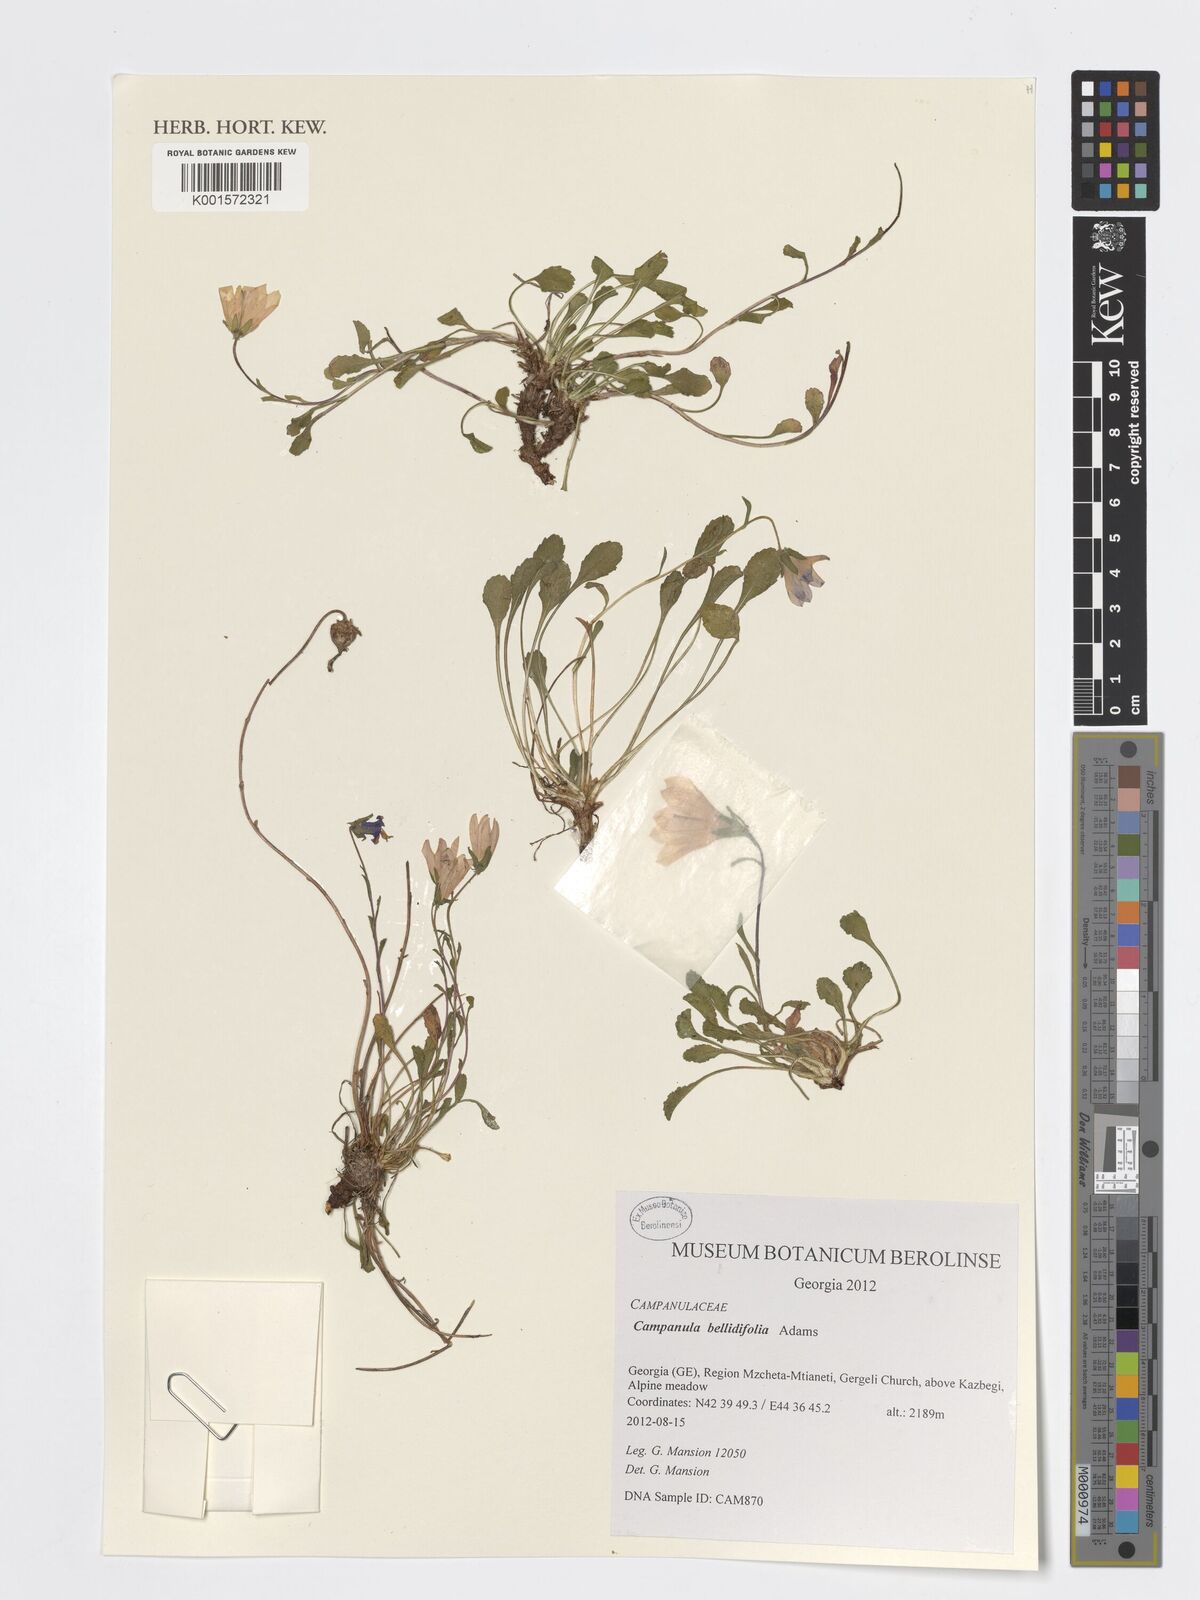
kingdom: Plantae
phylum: Tracheophyta
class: Magnoliopsida
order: Asterales
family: Campanulaceae
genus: Campanula
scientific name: Campanula bellidifolia
